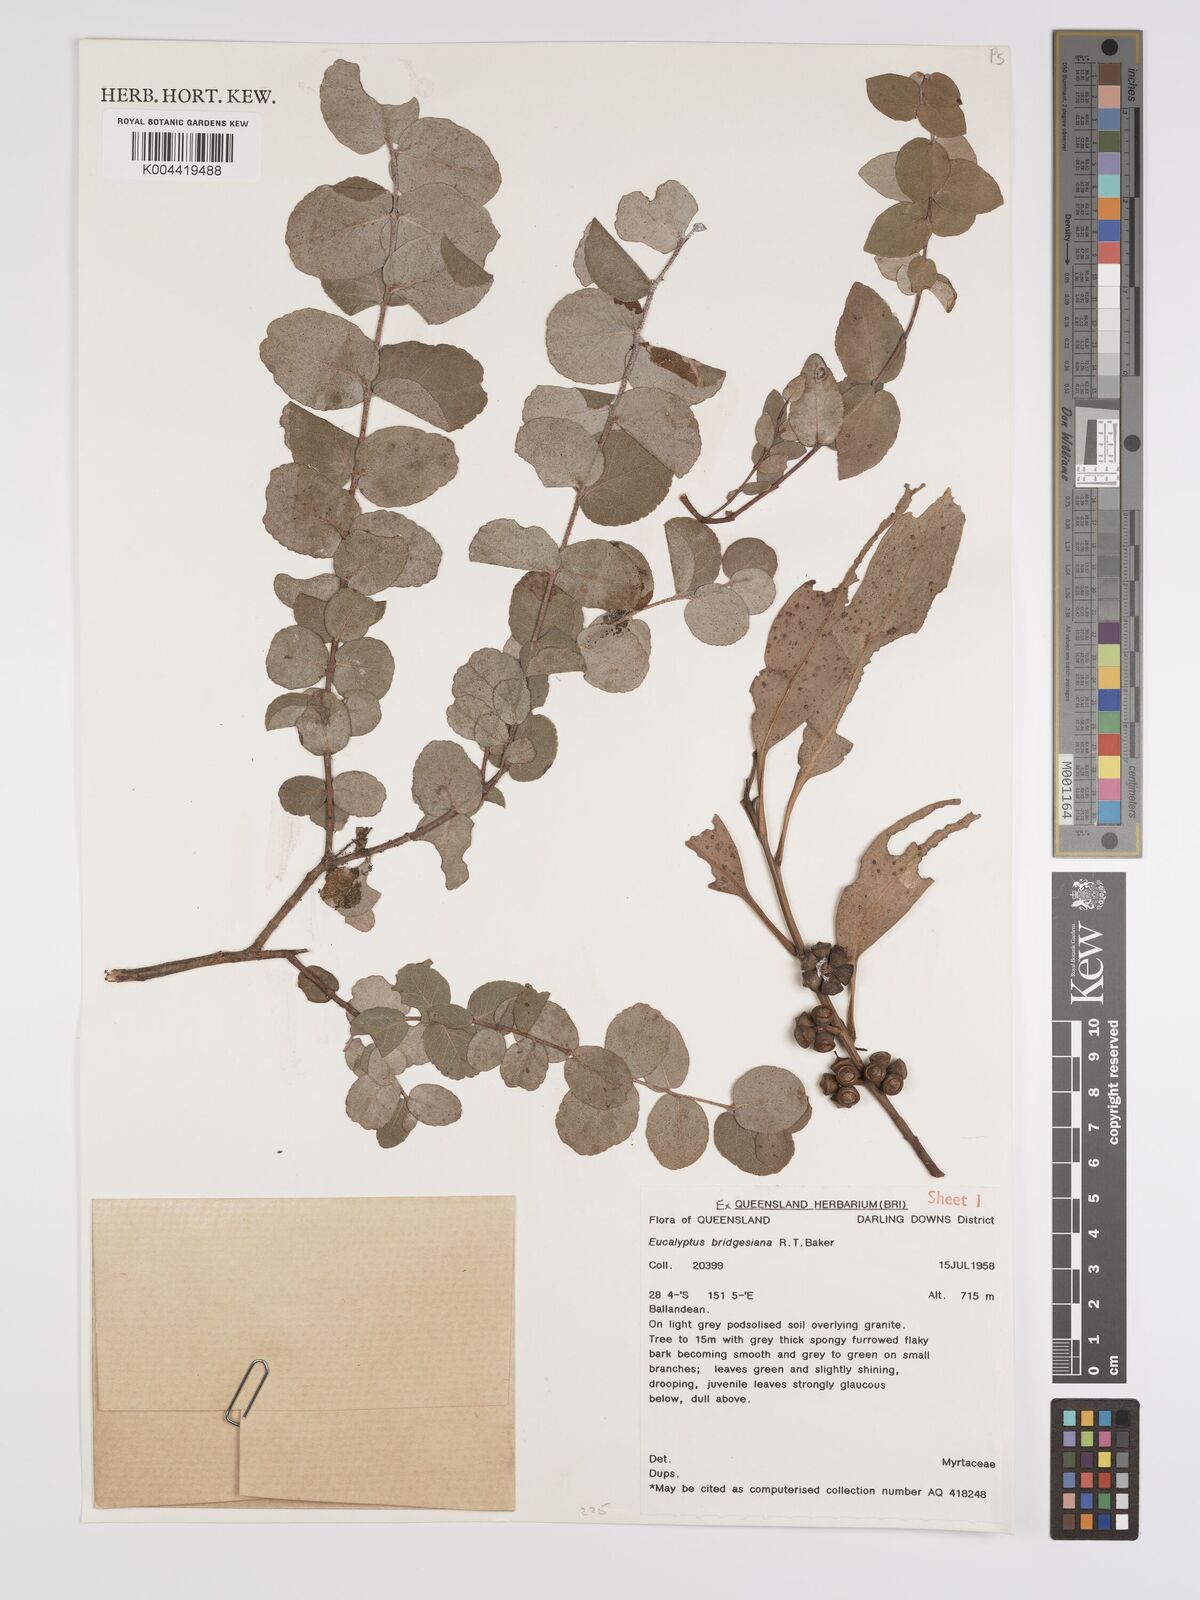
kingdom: Plantae
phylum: Tracheophyta
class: Magnoliopsida
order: Myrtales
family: Myrtaceae
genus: Eucalyptus
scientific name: Eucalyptus bridgesiana
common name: Applebox
